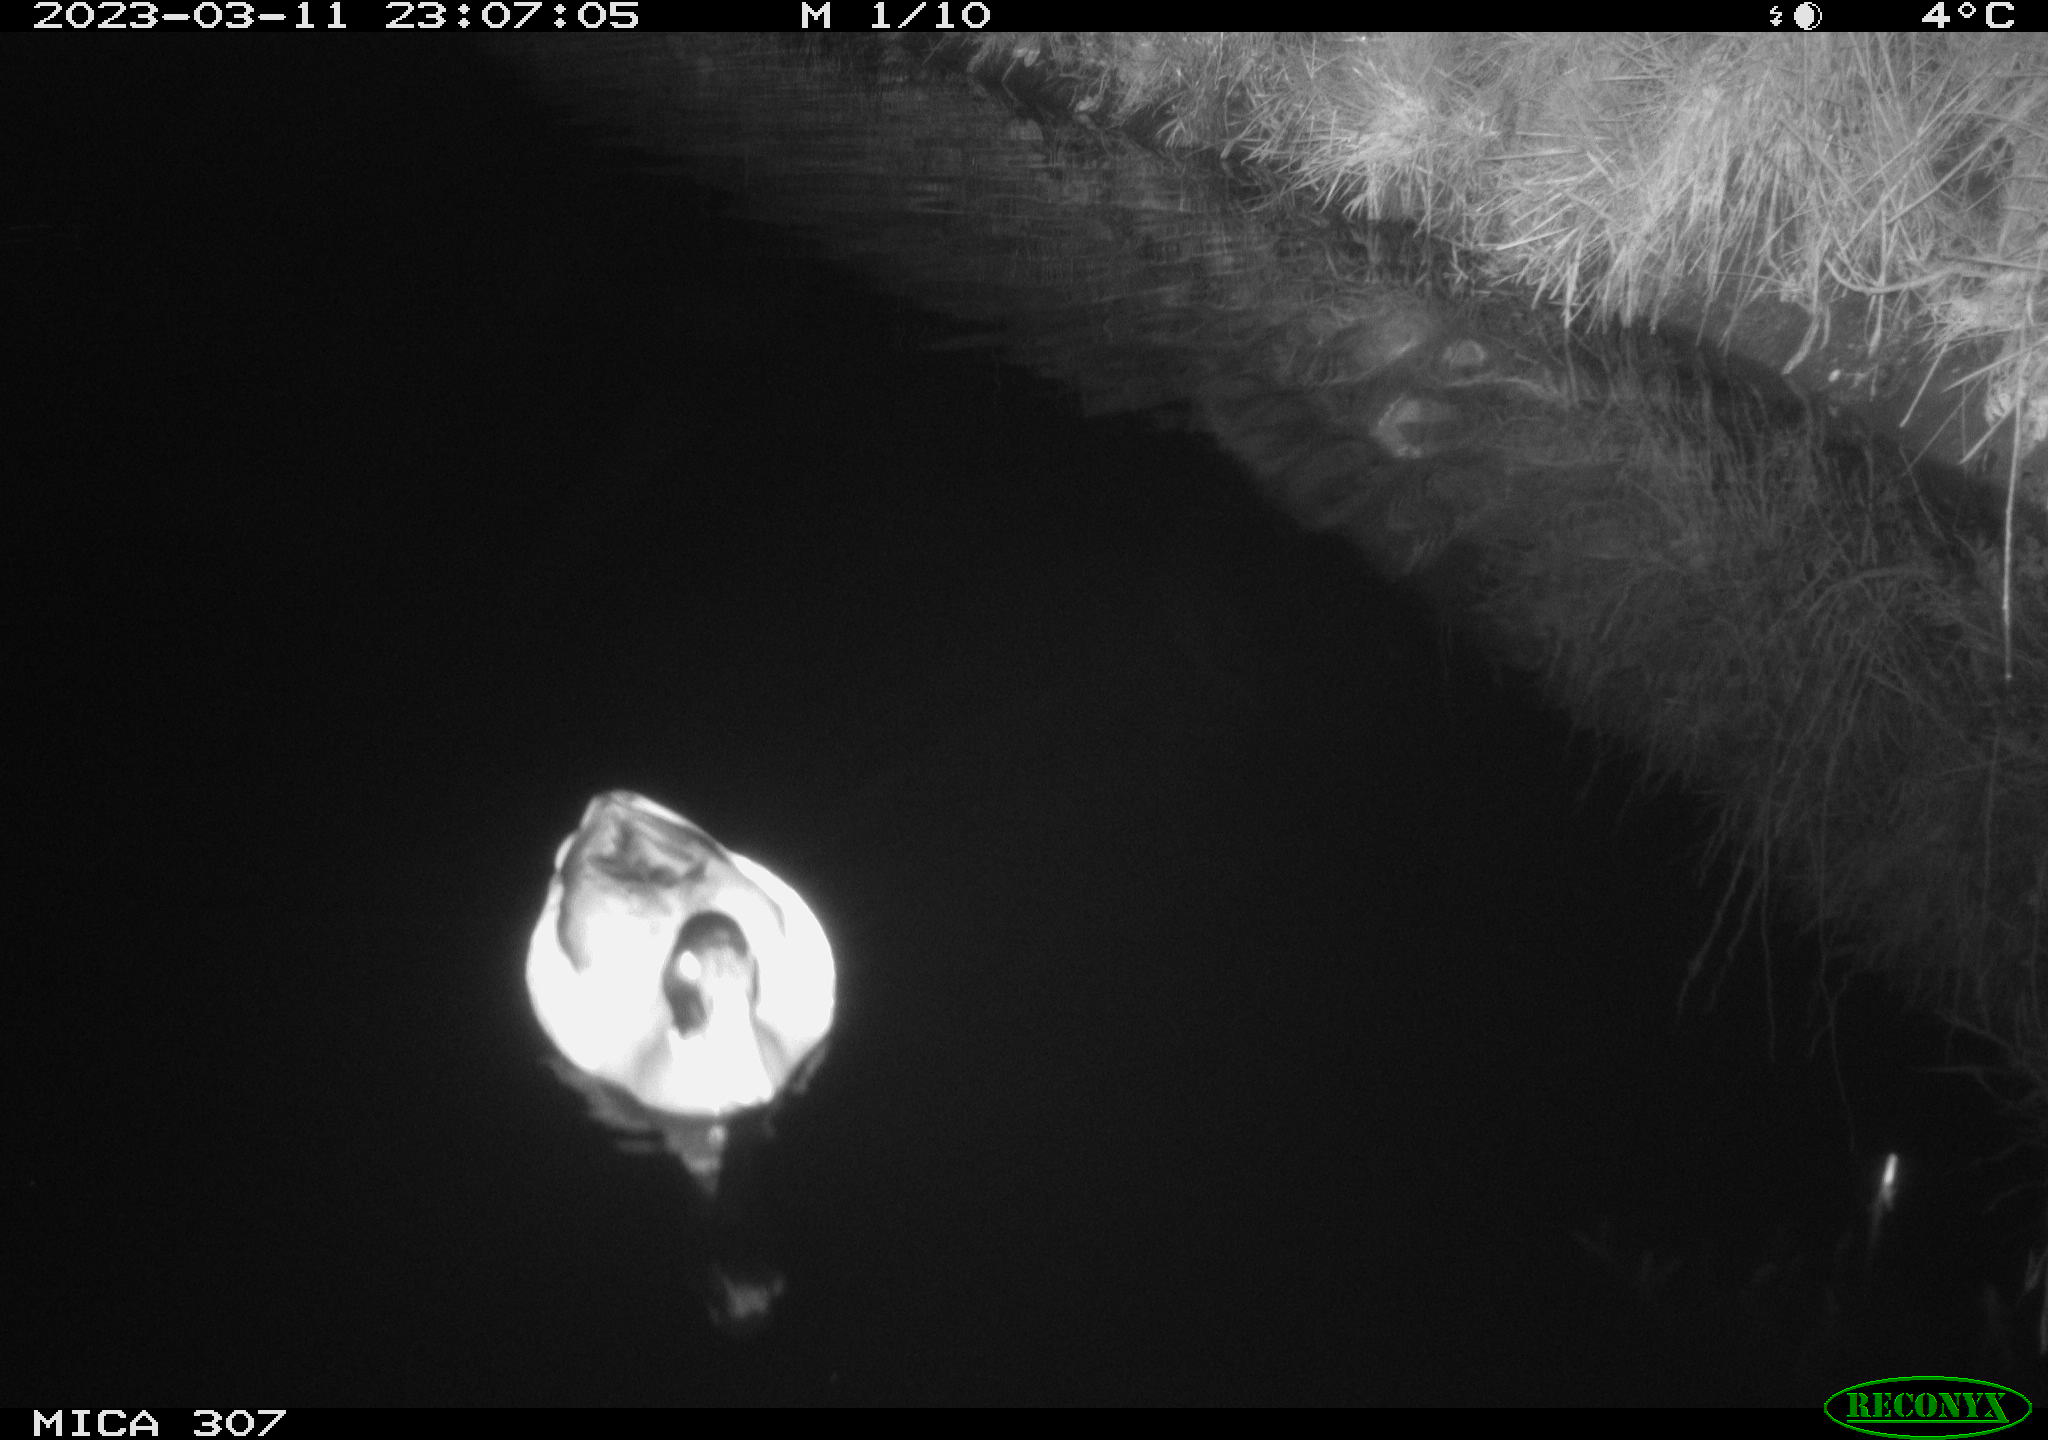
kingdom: Animalia
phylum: Chordata
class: Aves
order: Anseriformes
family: Anatidae
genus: Anas
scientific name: Anas
